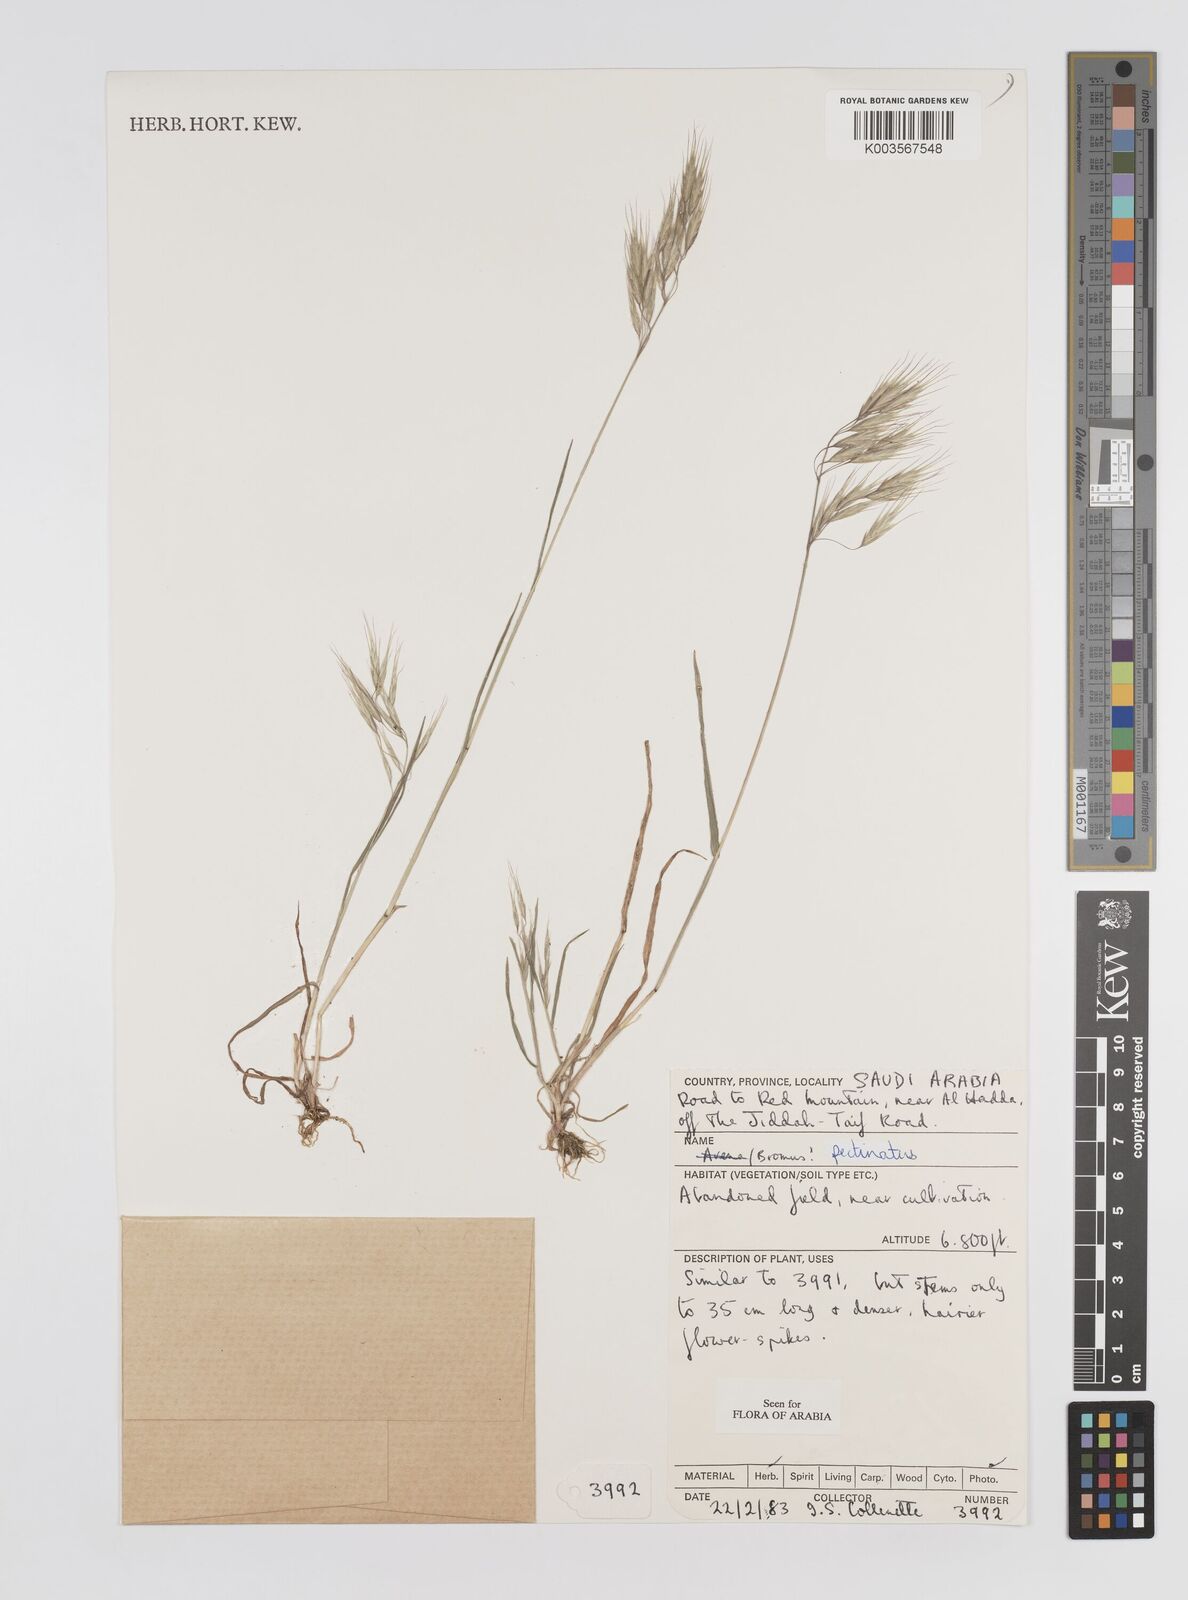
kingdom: Plantae
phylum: Tracheophyta
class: Liliopsida
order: Poales
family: Poaceae
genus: Bromus
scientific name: Bromus pectinatus
